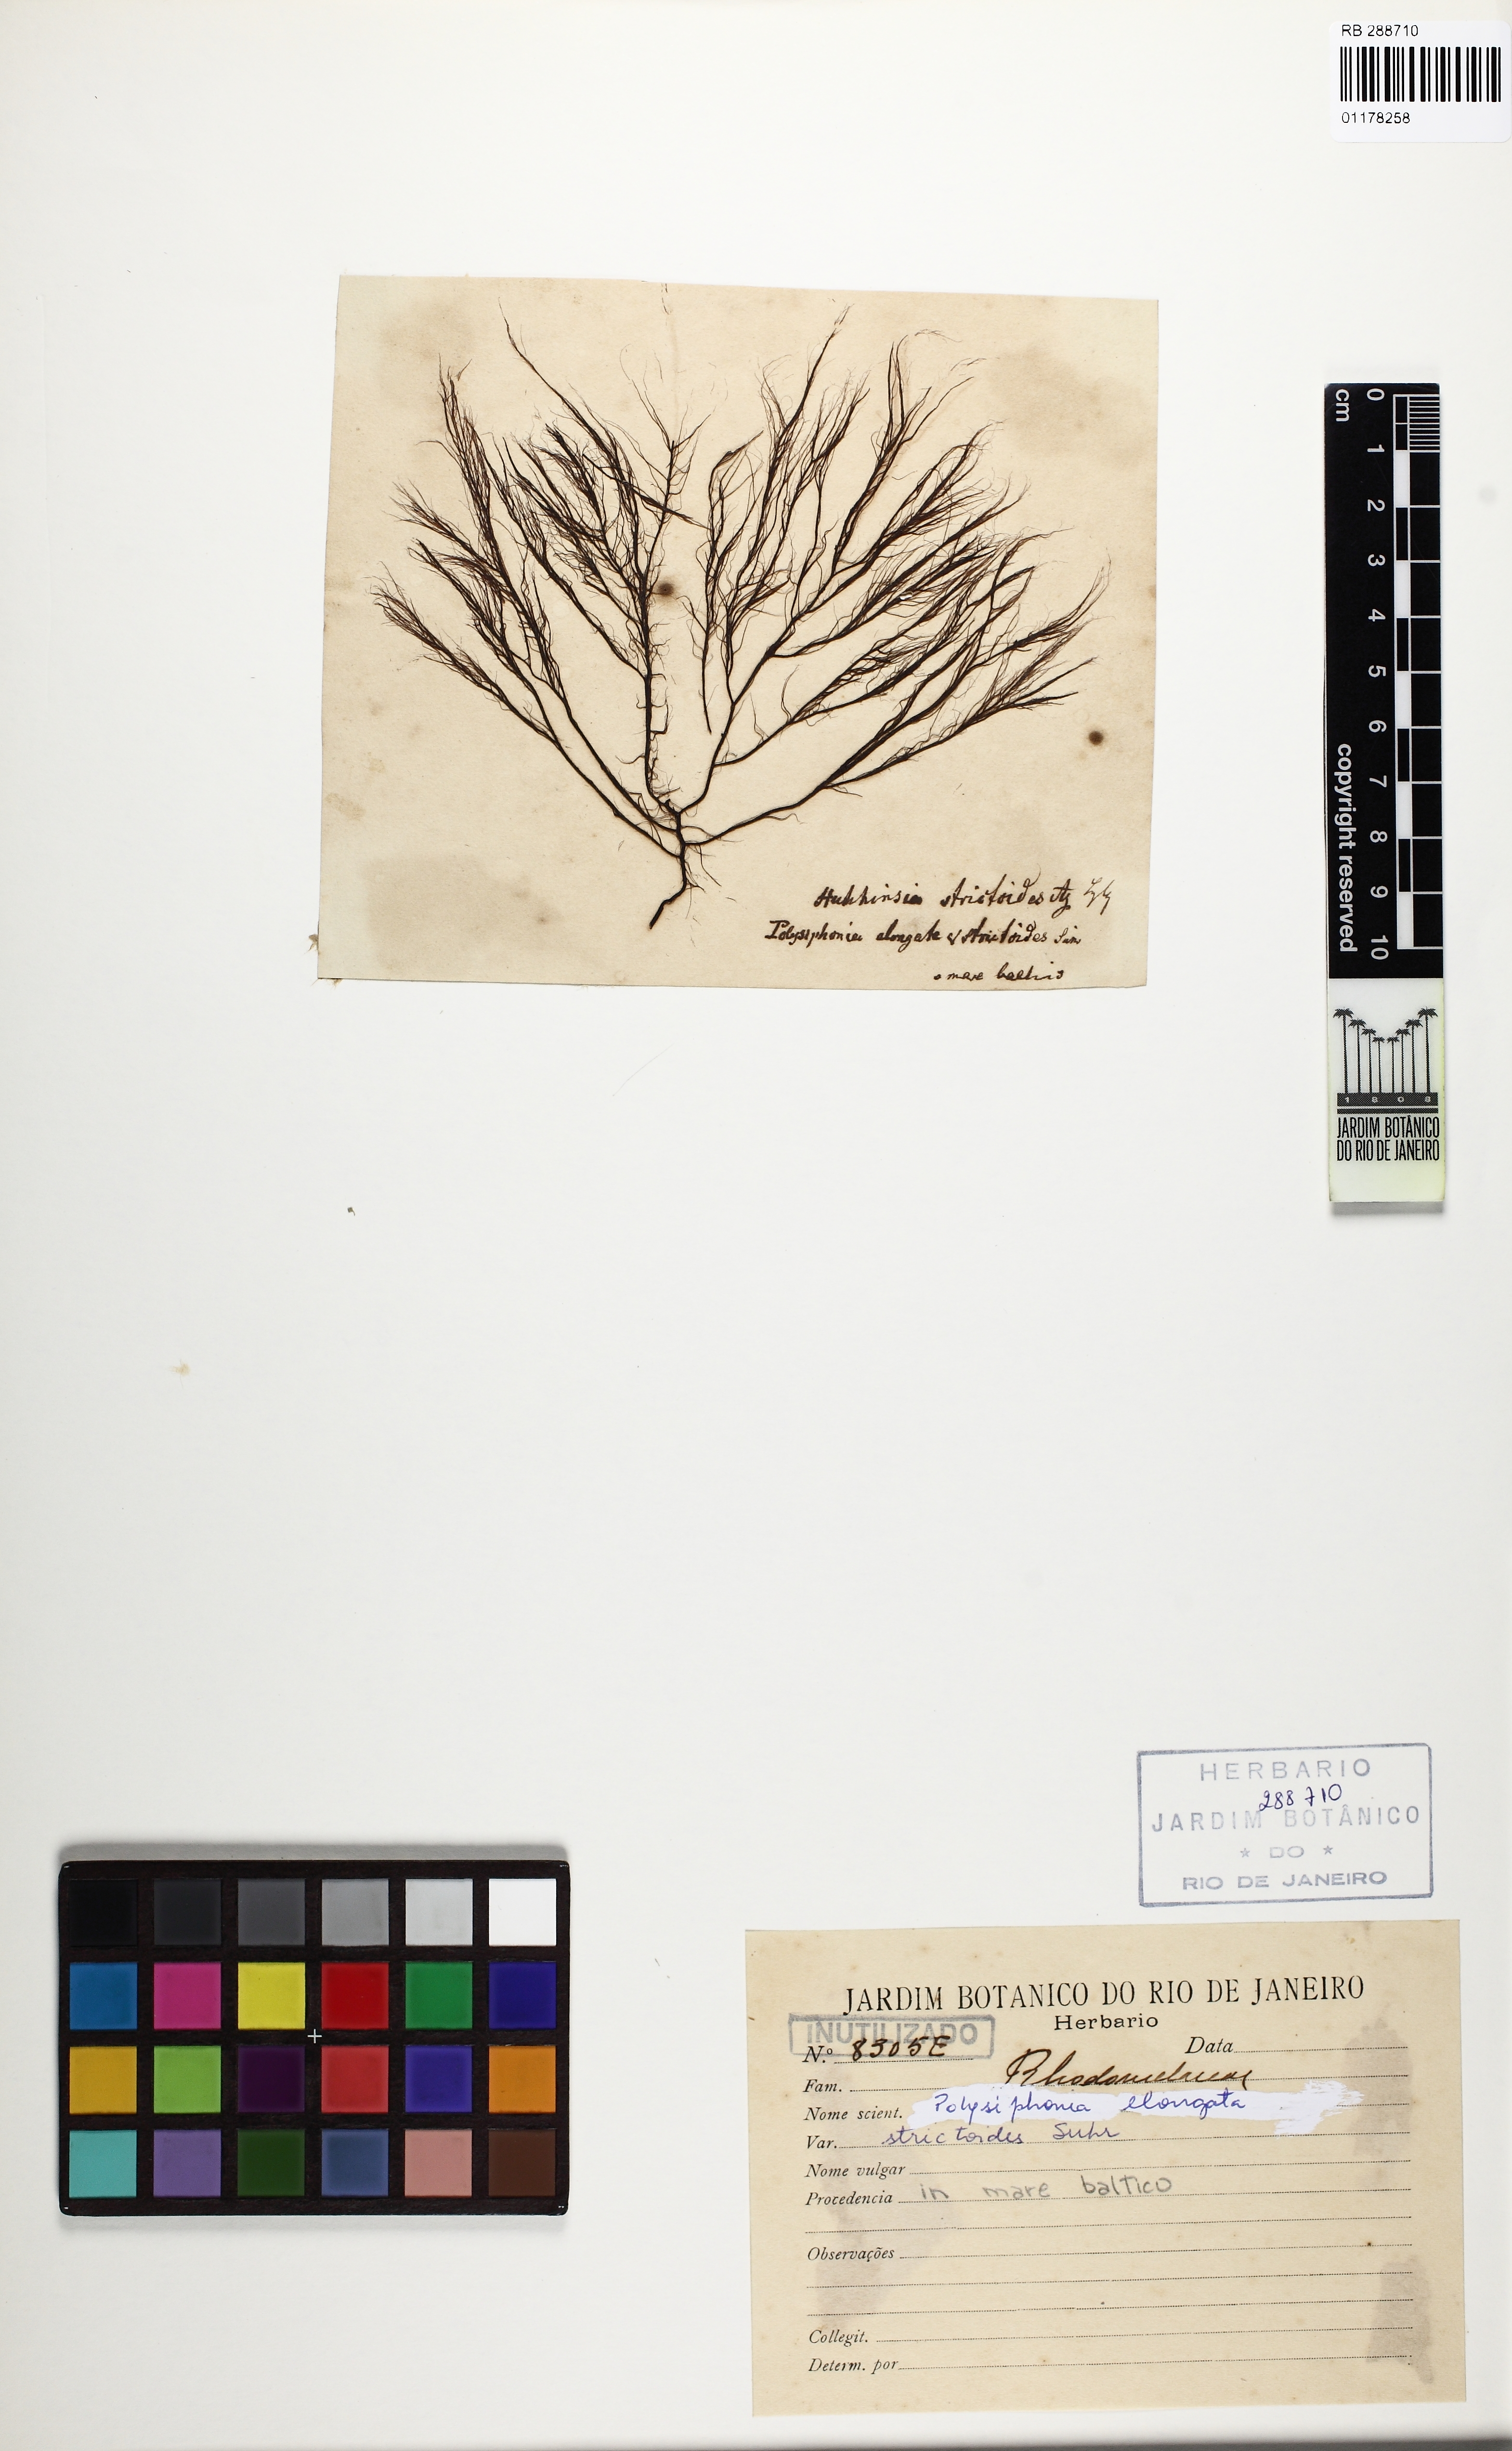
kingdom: Plantae
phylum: Rhodophyta
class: Florideophyceae
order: Ceramiales
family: Rhodomelaceae
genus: Vertebrata
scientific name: Vertebrata spec
